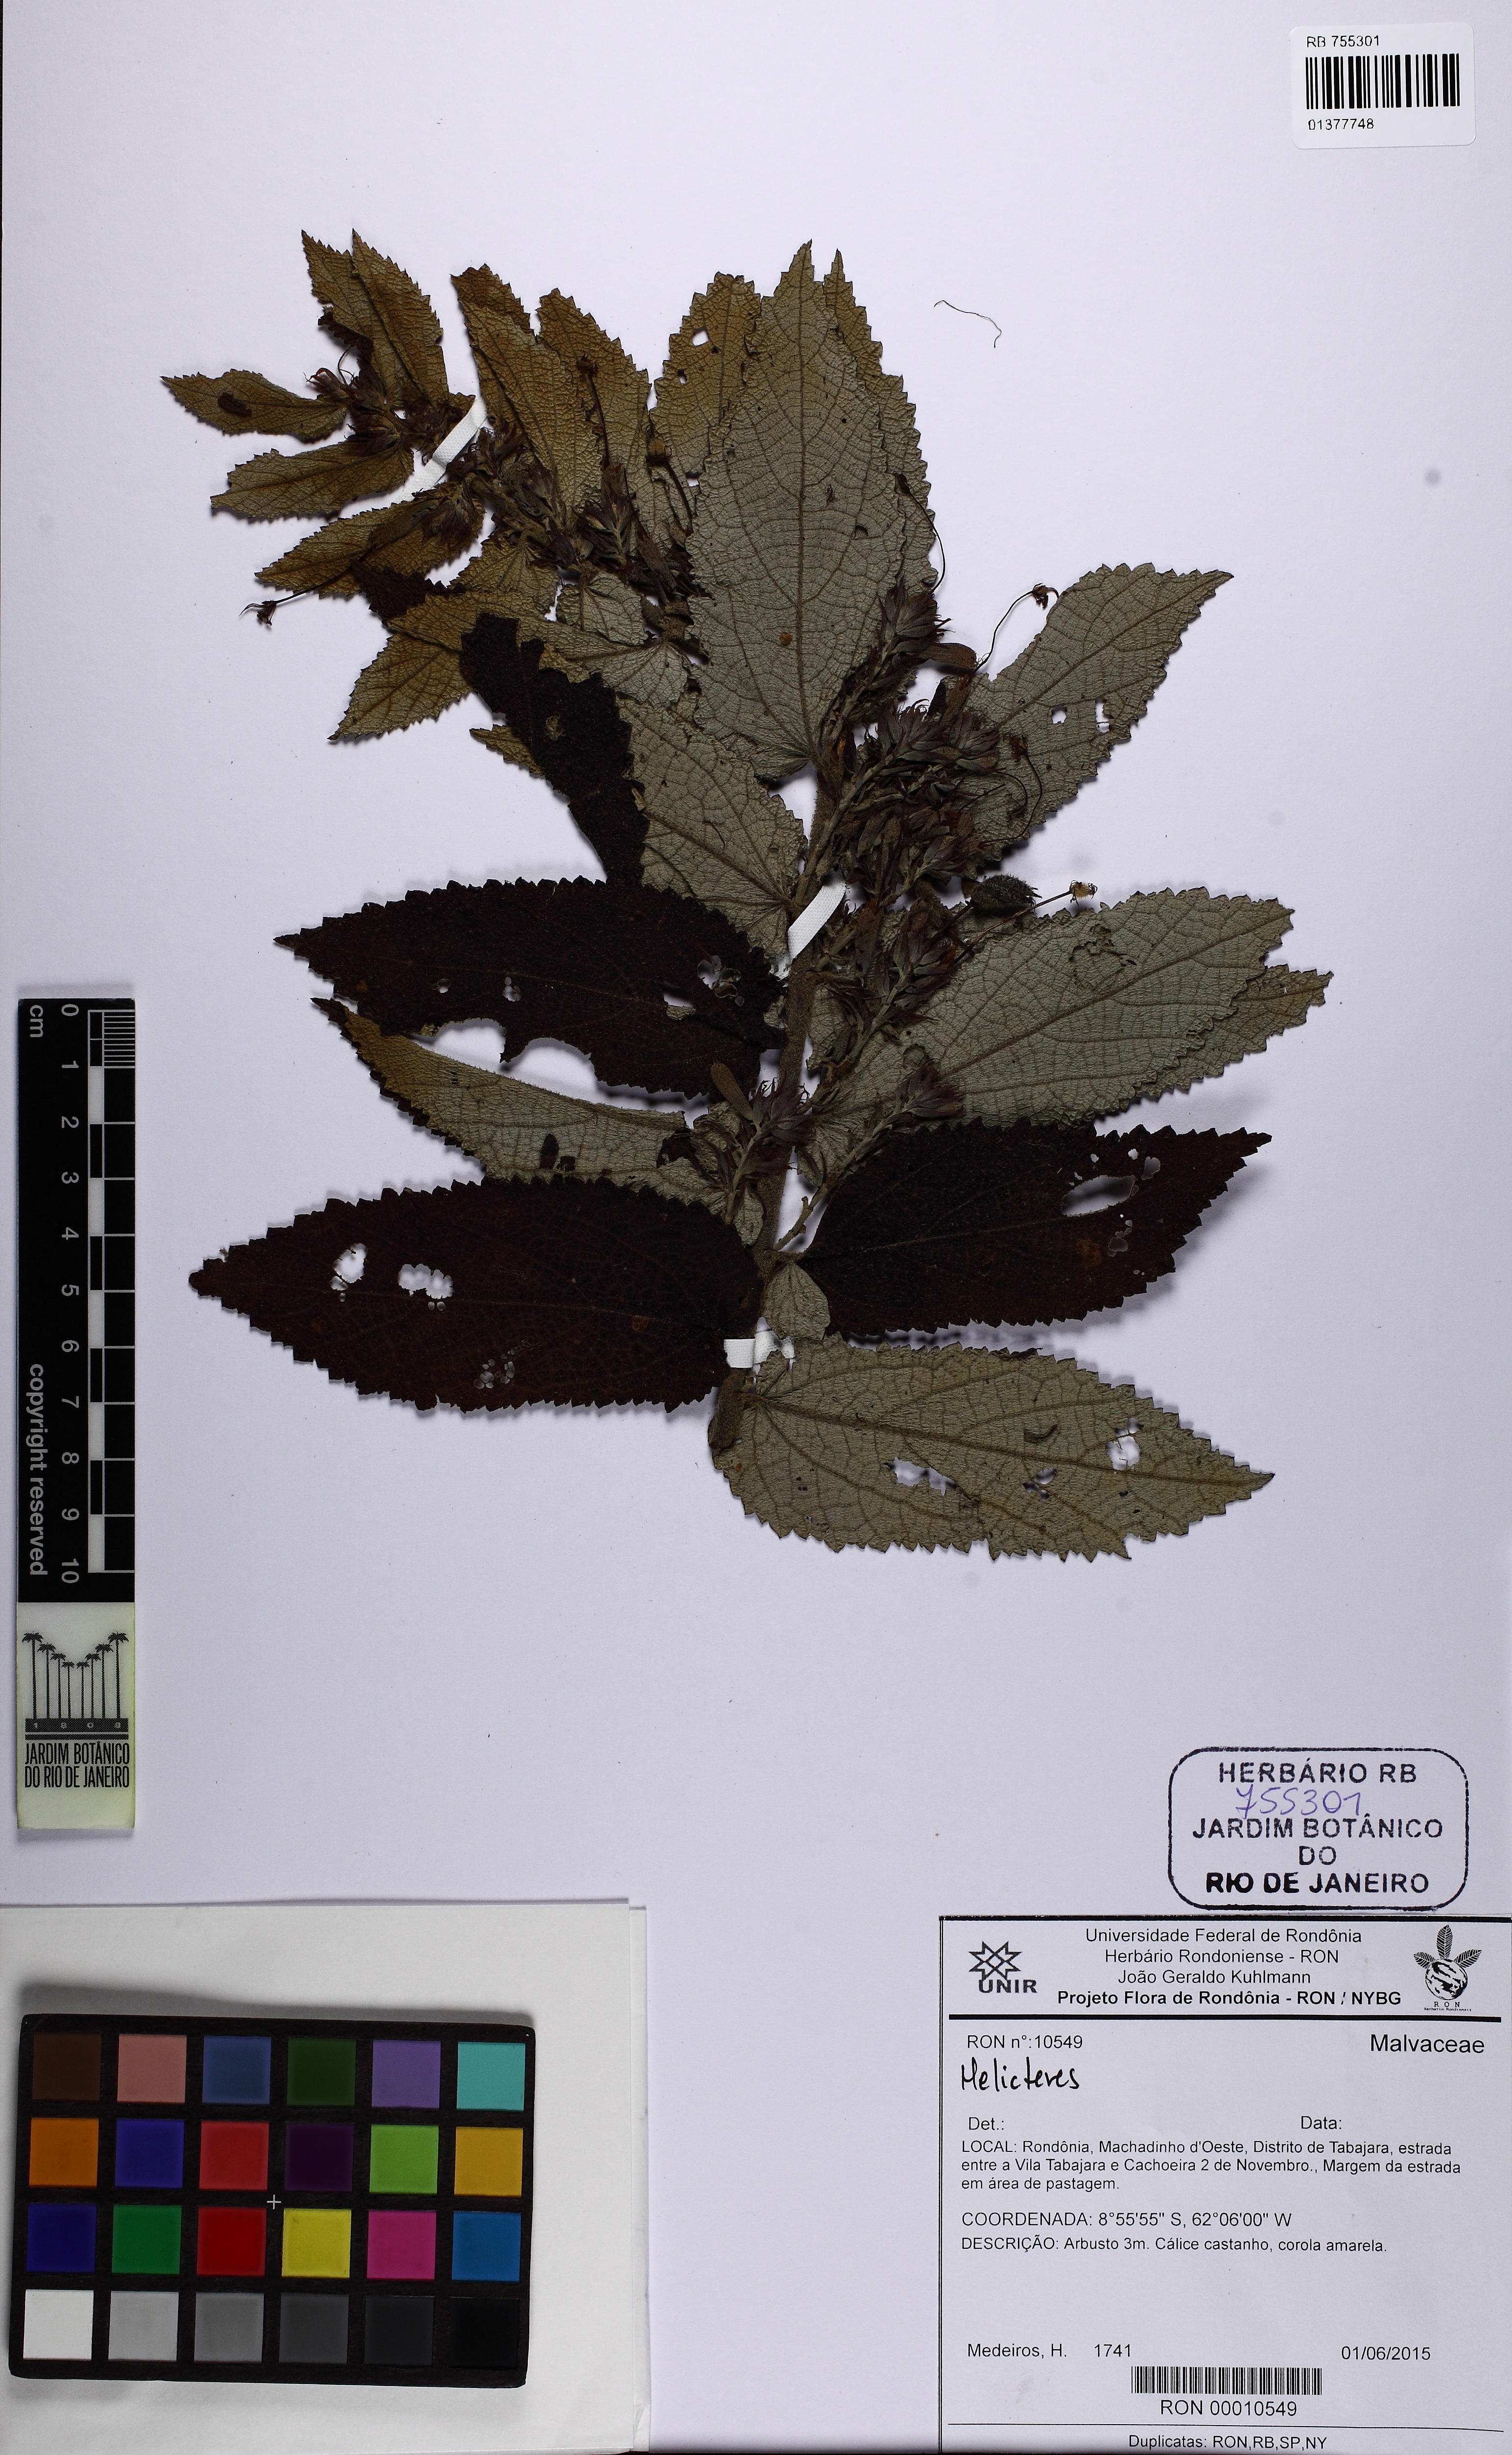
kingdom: Plantae
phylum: Tracheophyta
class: Magnoliopsida
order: Malvales
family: Malvaceae
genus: Helicteres
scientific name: Helicteres
